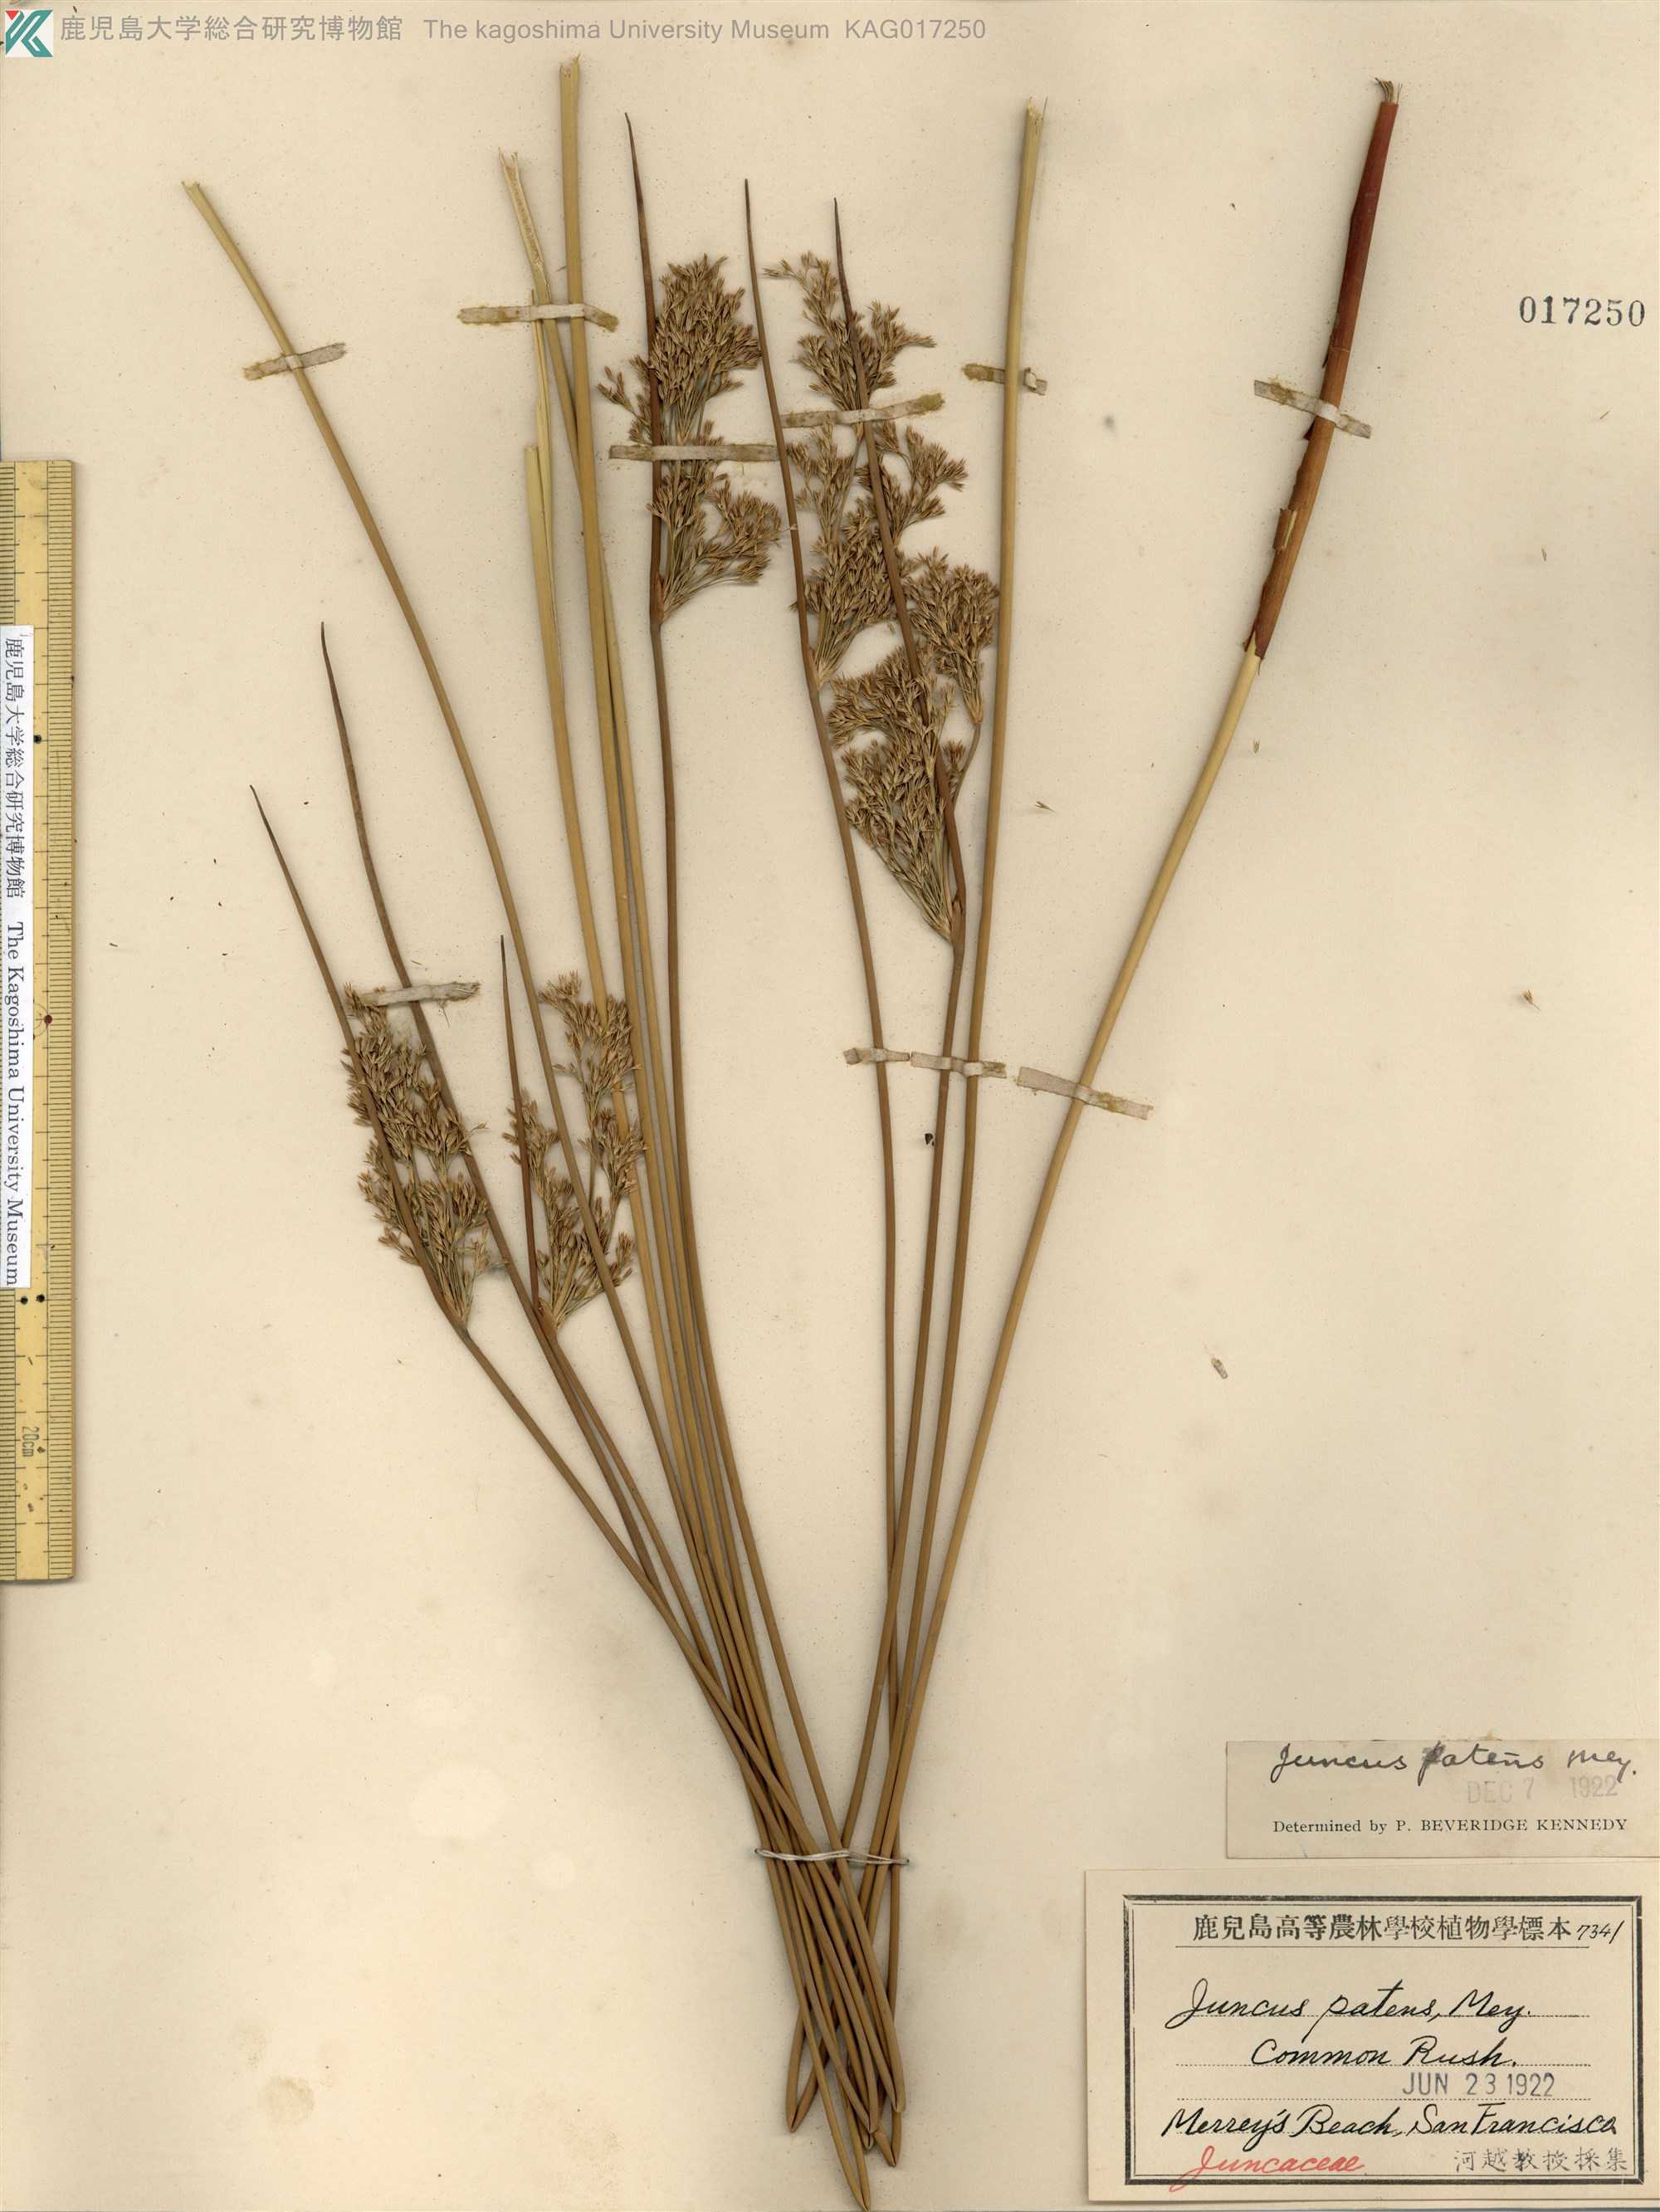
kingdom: Plantae
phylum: Tracheophyta
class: Liliopsida
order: Poales
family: Juncaceae
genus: Juncus
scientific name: Juncus patens
